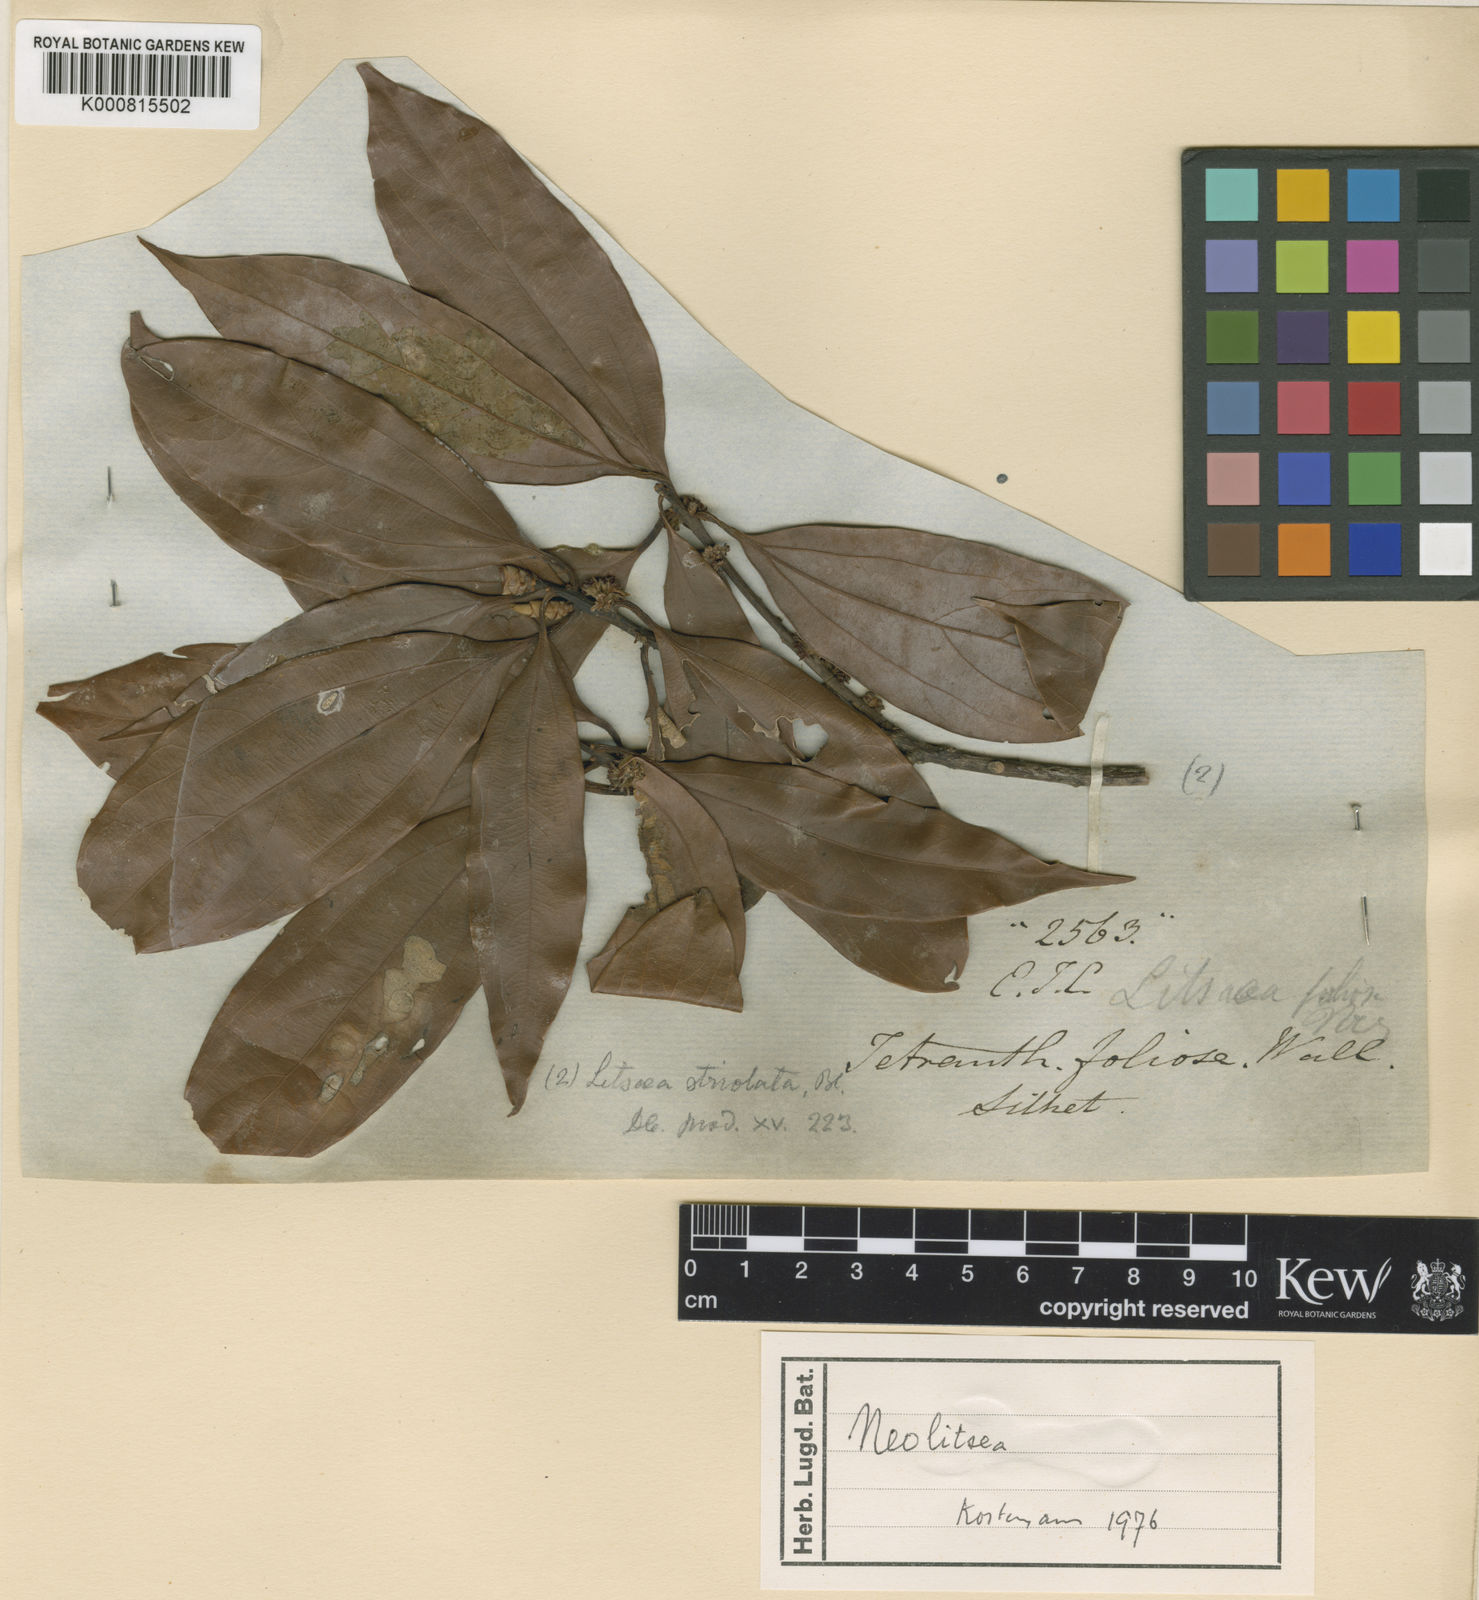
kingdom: Plantae
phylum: Tracheophyta
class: Magnoliopsida
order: Laurales
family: Lauraceae
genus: Neolitsea
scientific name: Neolitsea
